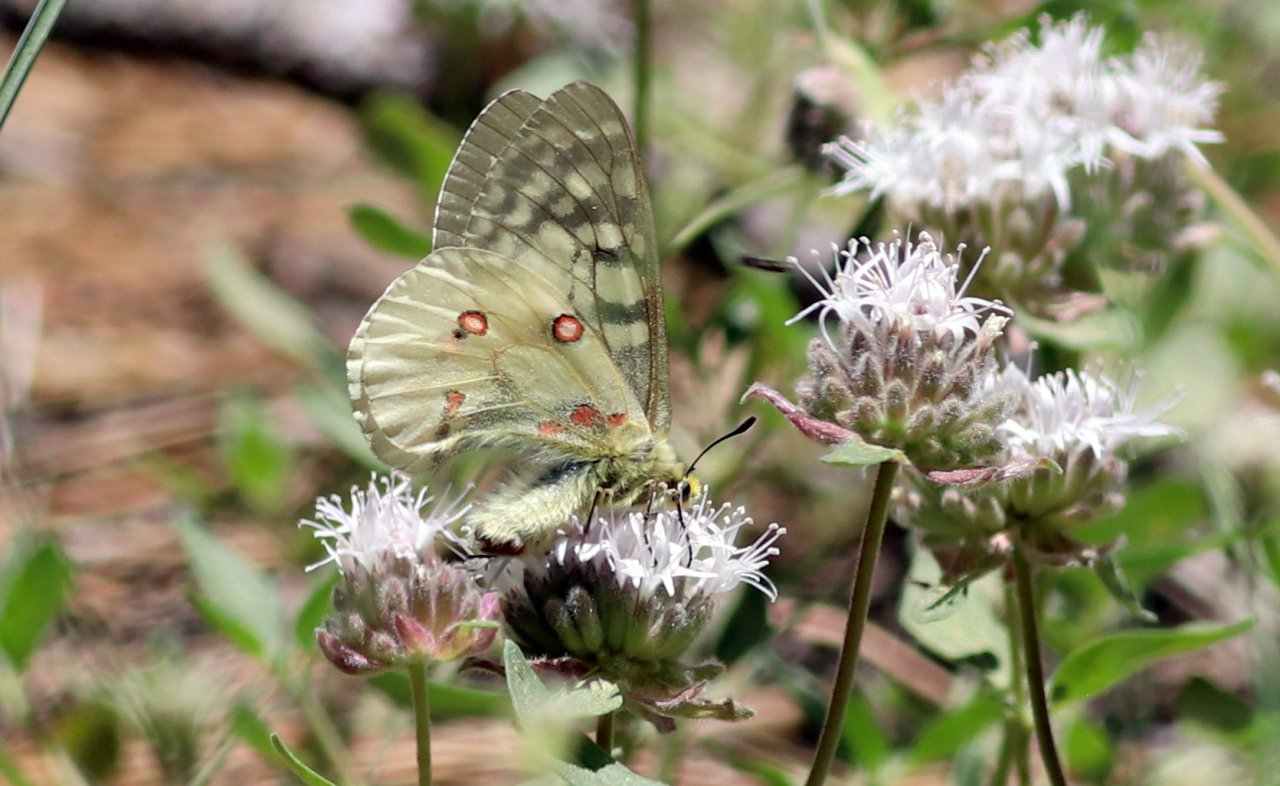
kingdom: Animalia
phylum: Arthropoda
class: Insecta
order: Lepidoptera
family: Papilionidae
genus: Parnassius
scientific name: Parnassius clodius
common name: Clodius Parnassian
